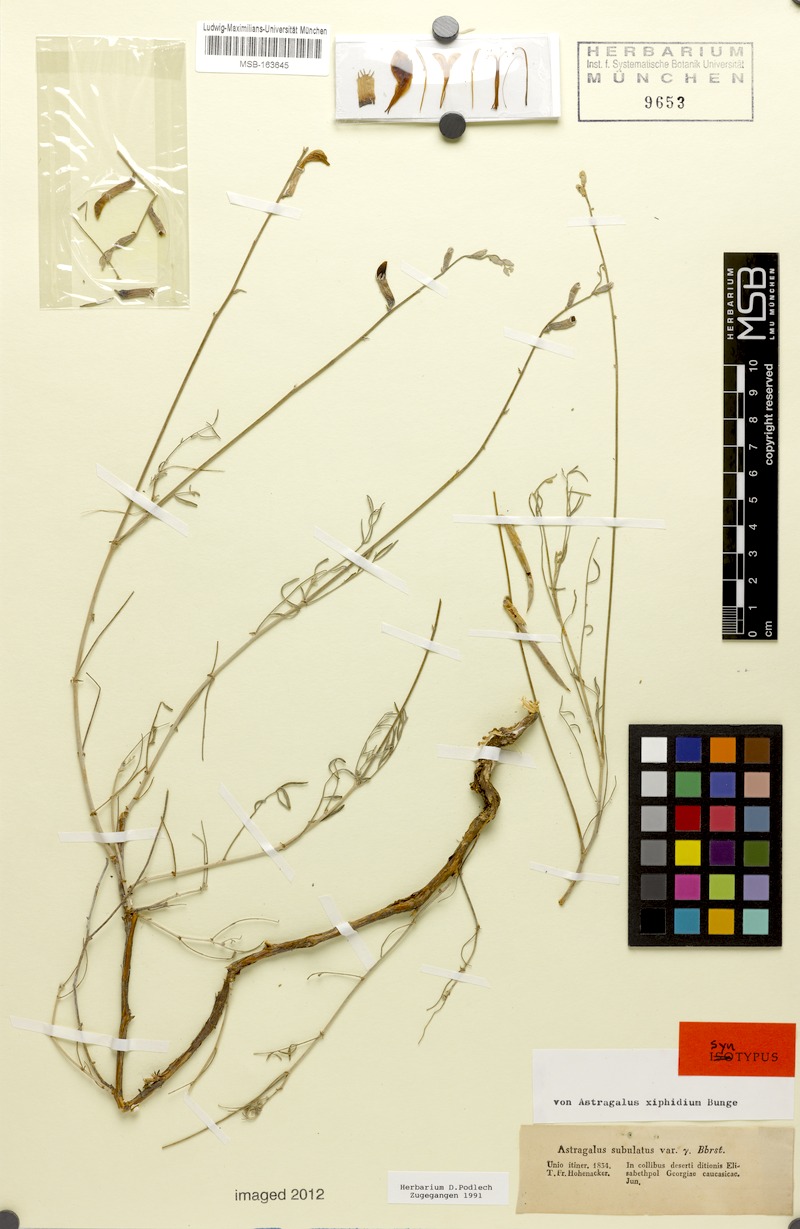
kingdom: Plantae
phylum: Tracheophyta
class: Magnoliopsida
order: Fabales
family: Fabaceae
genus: Astragalus
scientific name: Astragalus xiphidium
